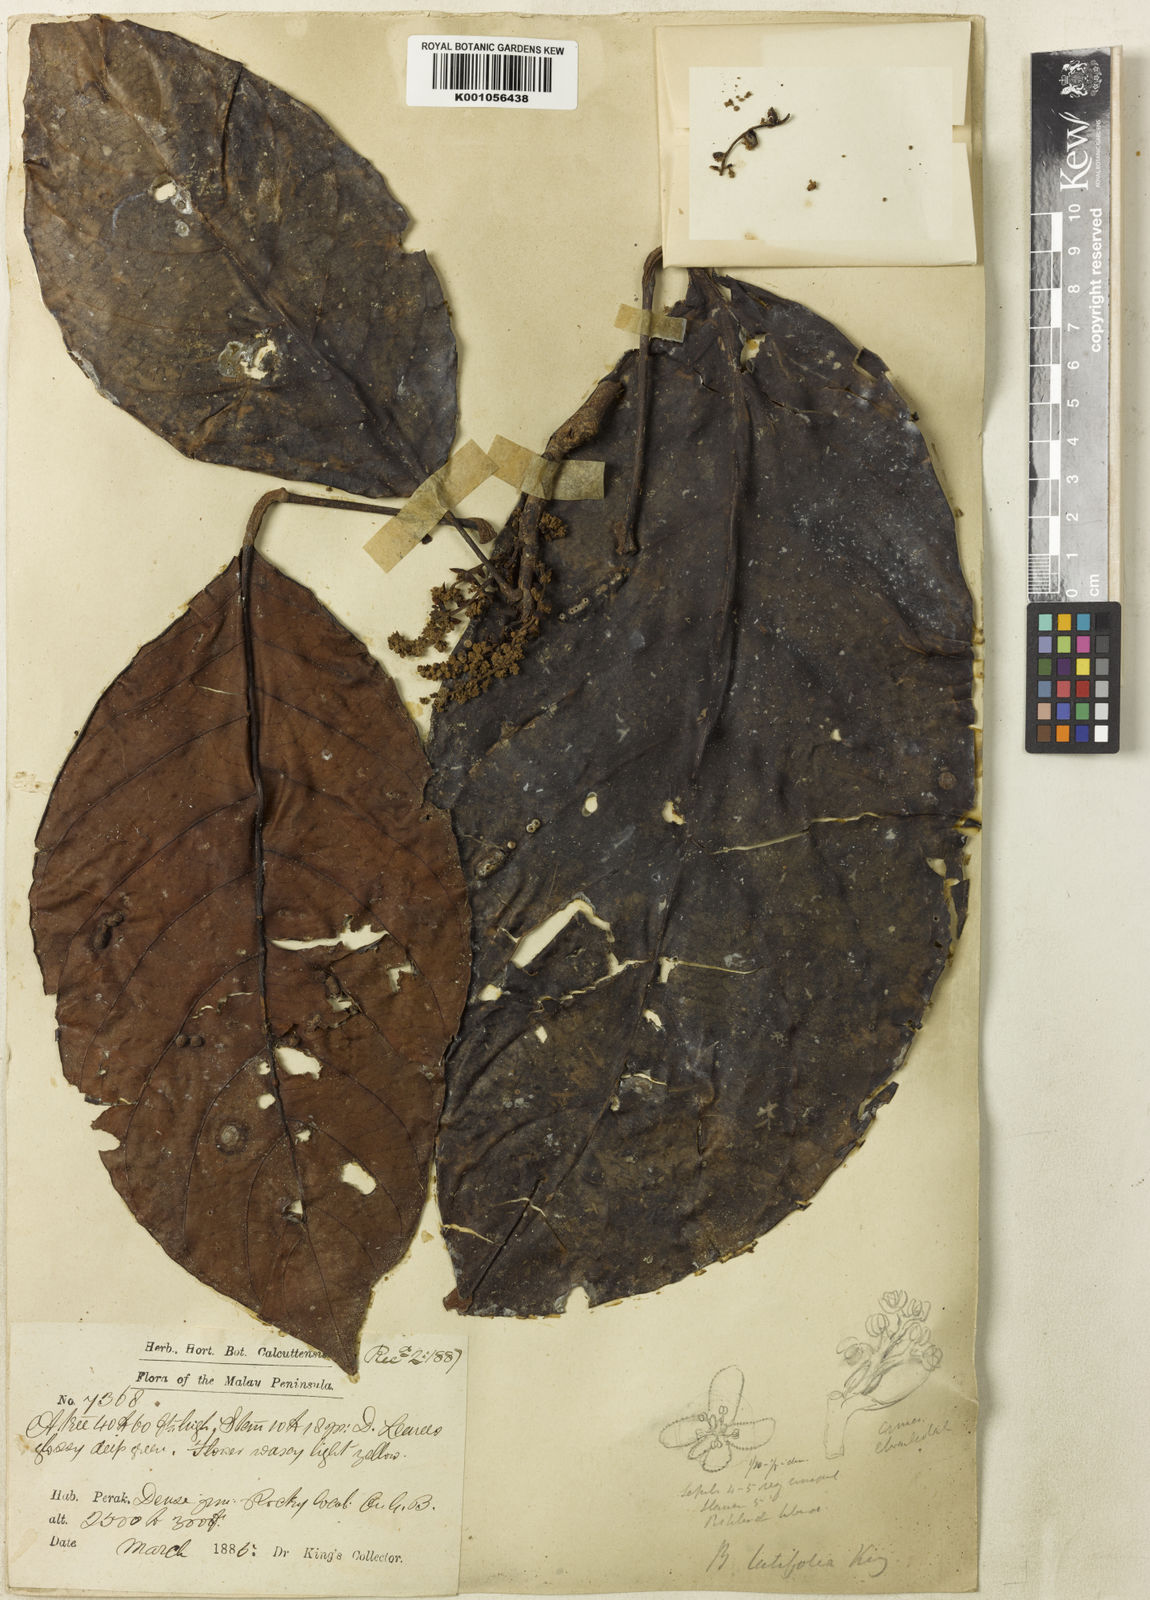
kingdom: Plantae
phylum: Tracheophyta
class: Magnoliopsida
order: Malpighiales
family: Phyllanthaceae
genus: Baccaurea
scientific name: Baccaurea pubera
